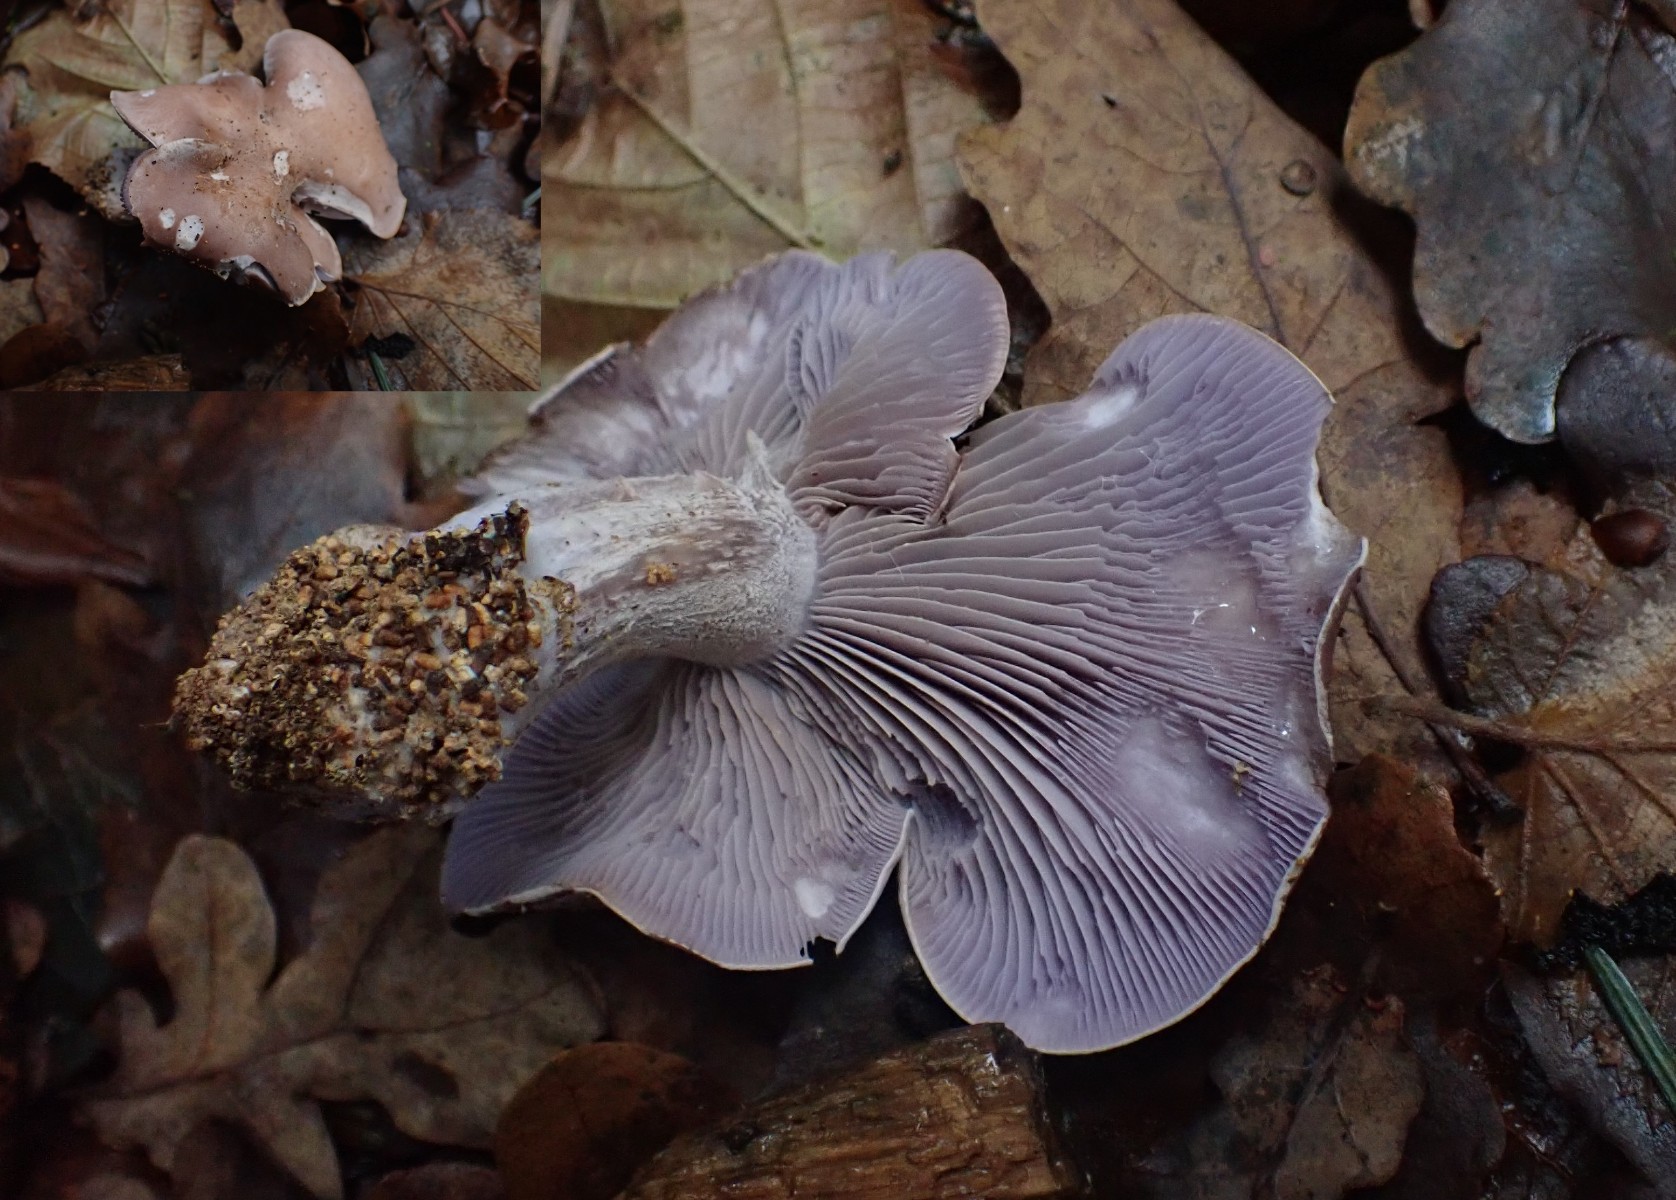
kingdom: Fungi
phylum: Basidiomycota
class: Agaricomycetes
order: Agaricales
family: Tricholomataceae
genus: Lepista
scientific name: Lepista nuda
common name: violet hekseringshat
